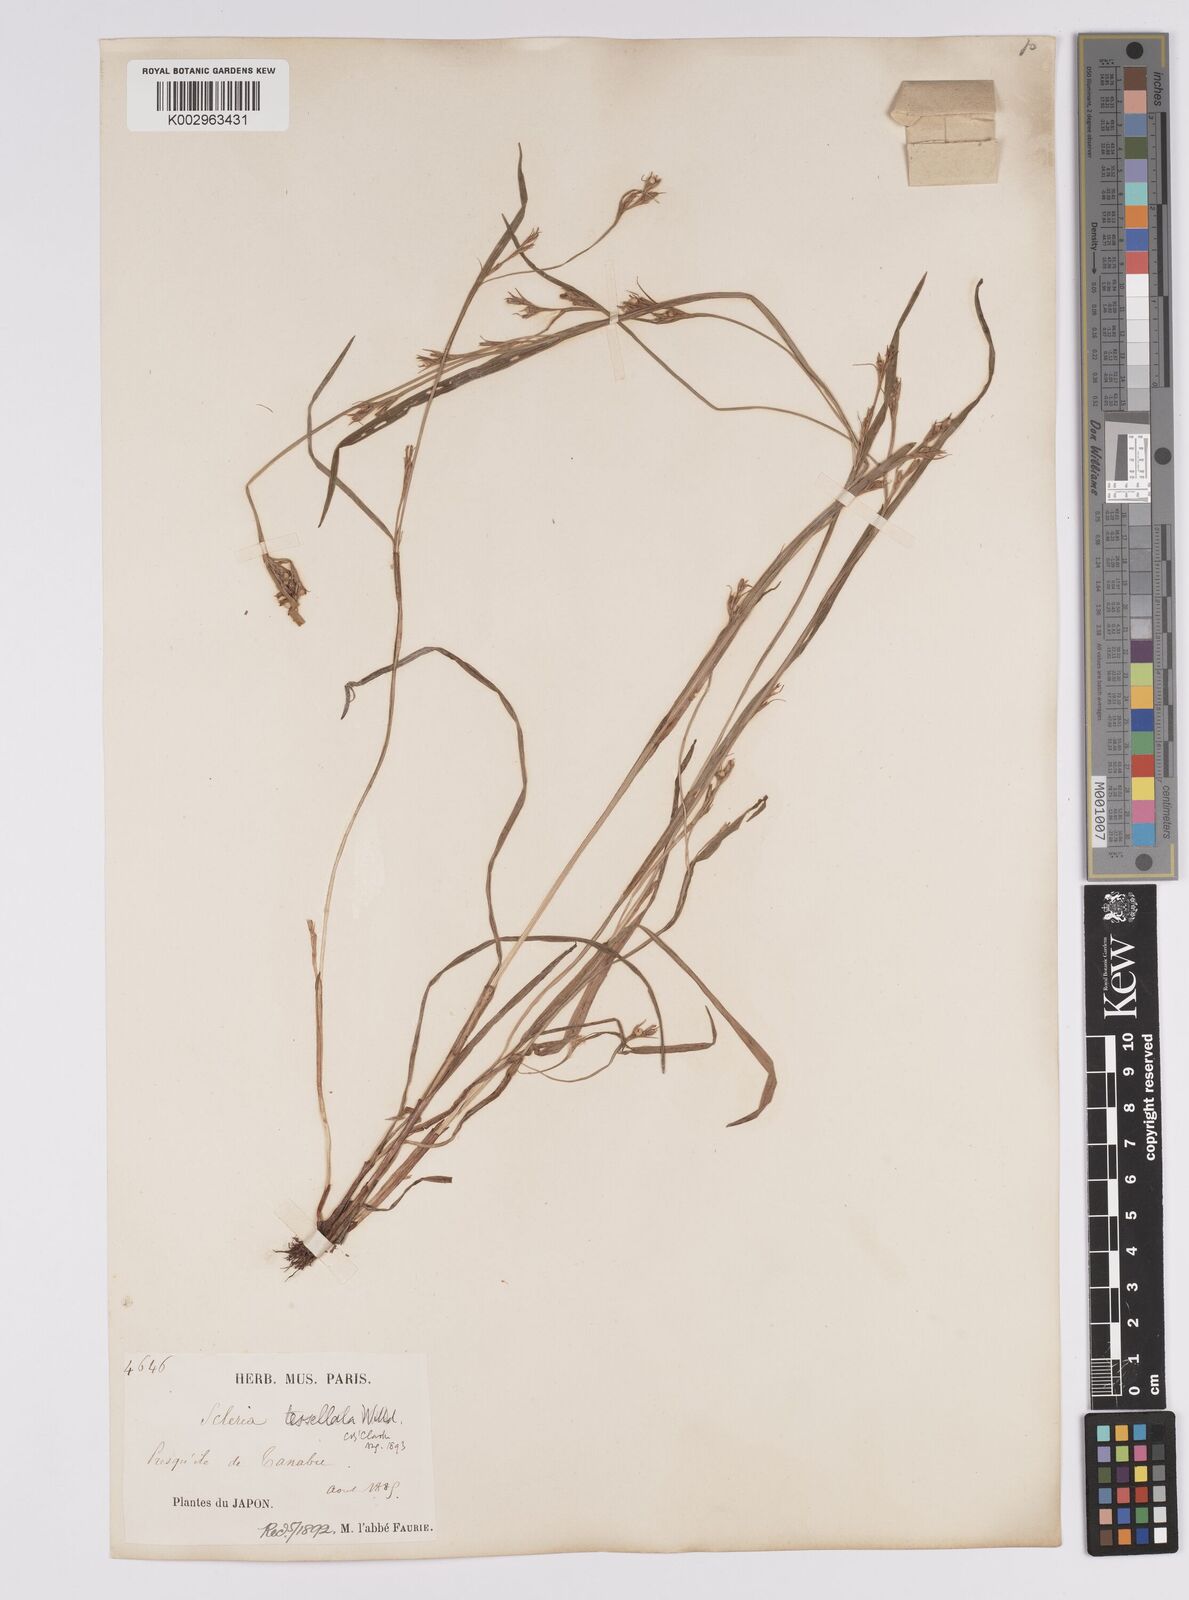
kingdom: Plantae
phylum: Tracheophyta
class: Liliopsida
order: Poales
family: Cyperaceae
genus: Scleria
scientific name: Scleria tessellata
